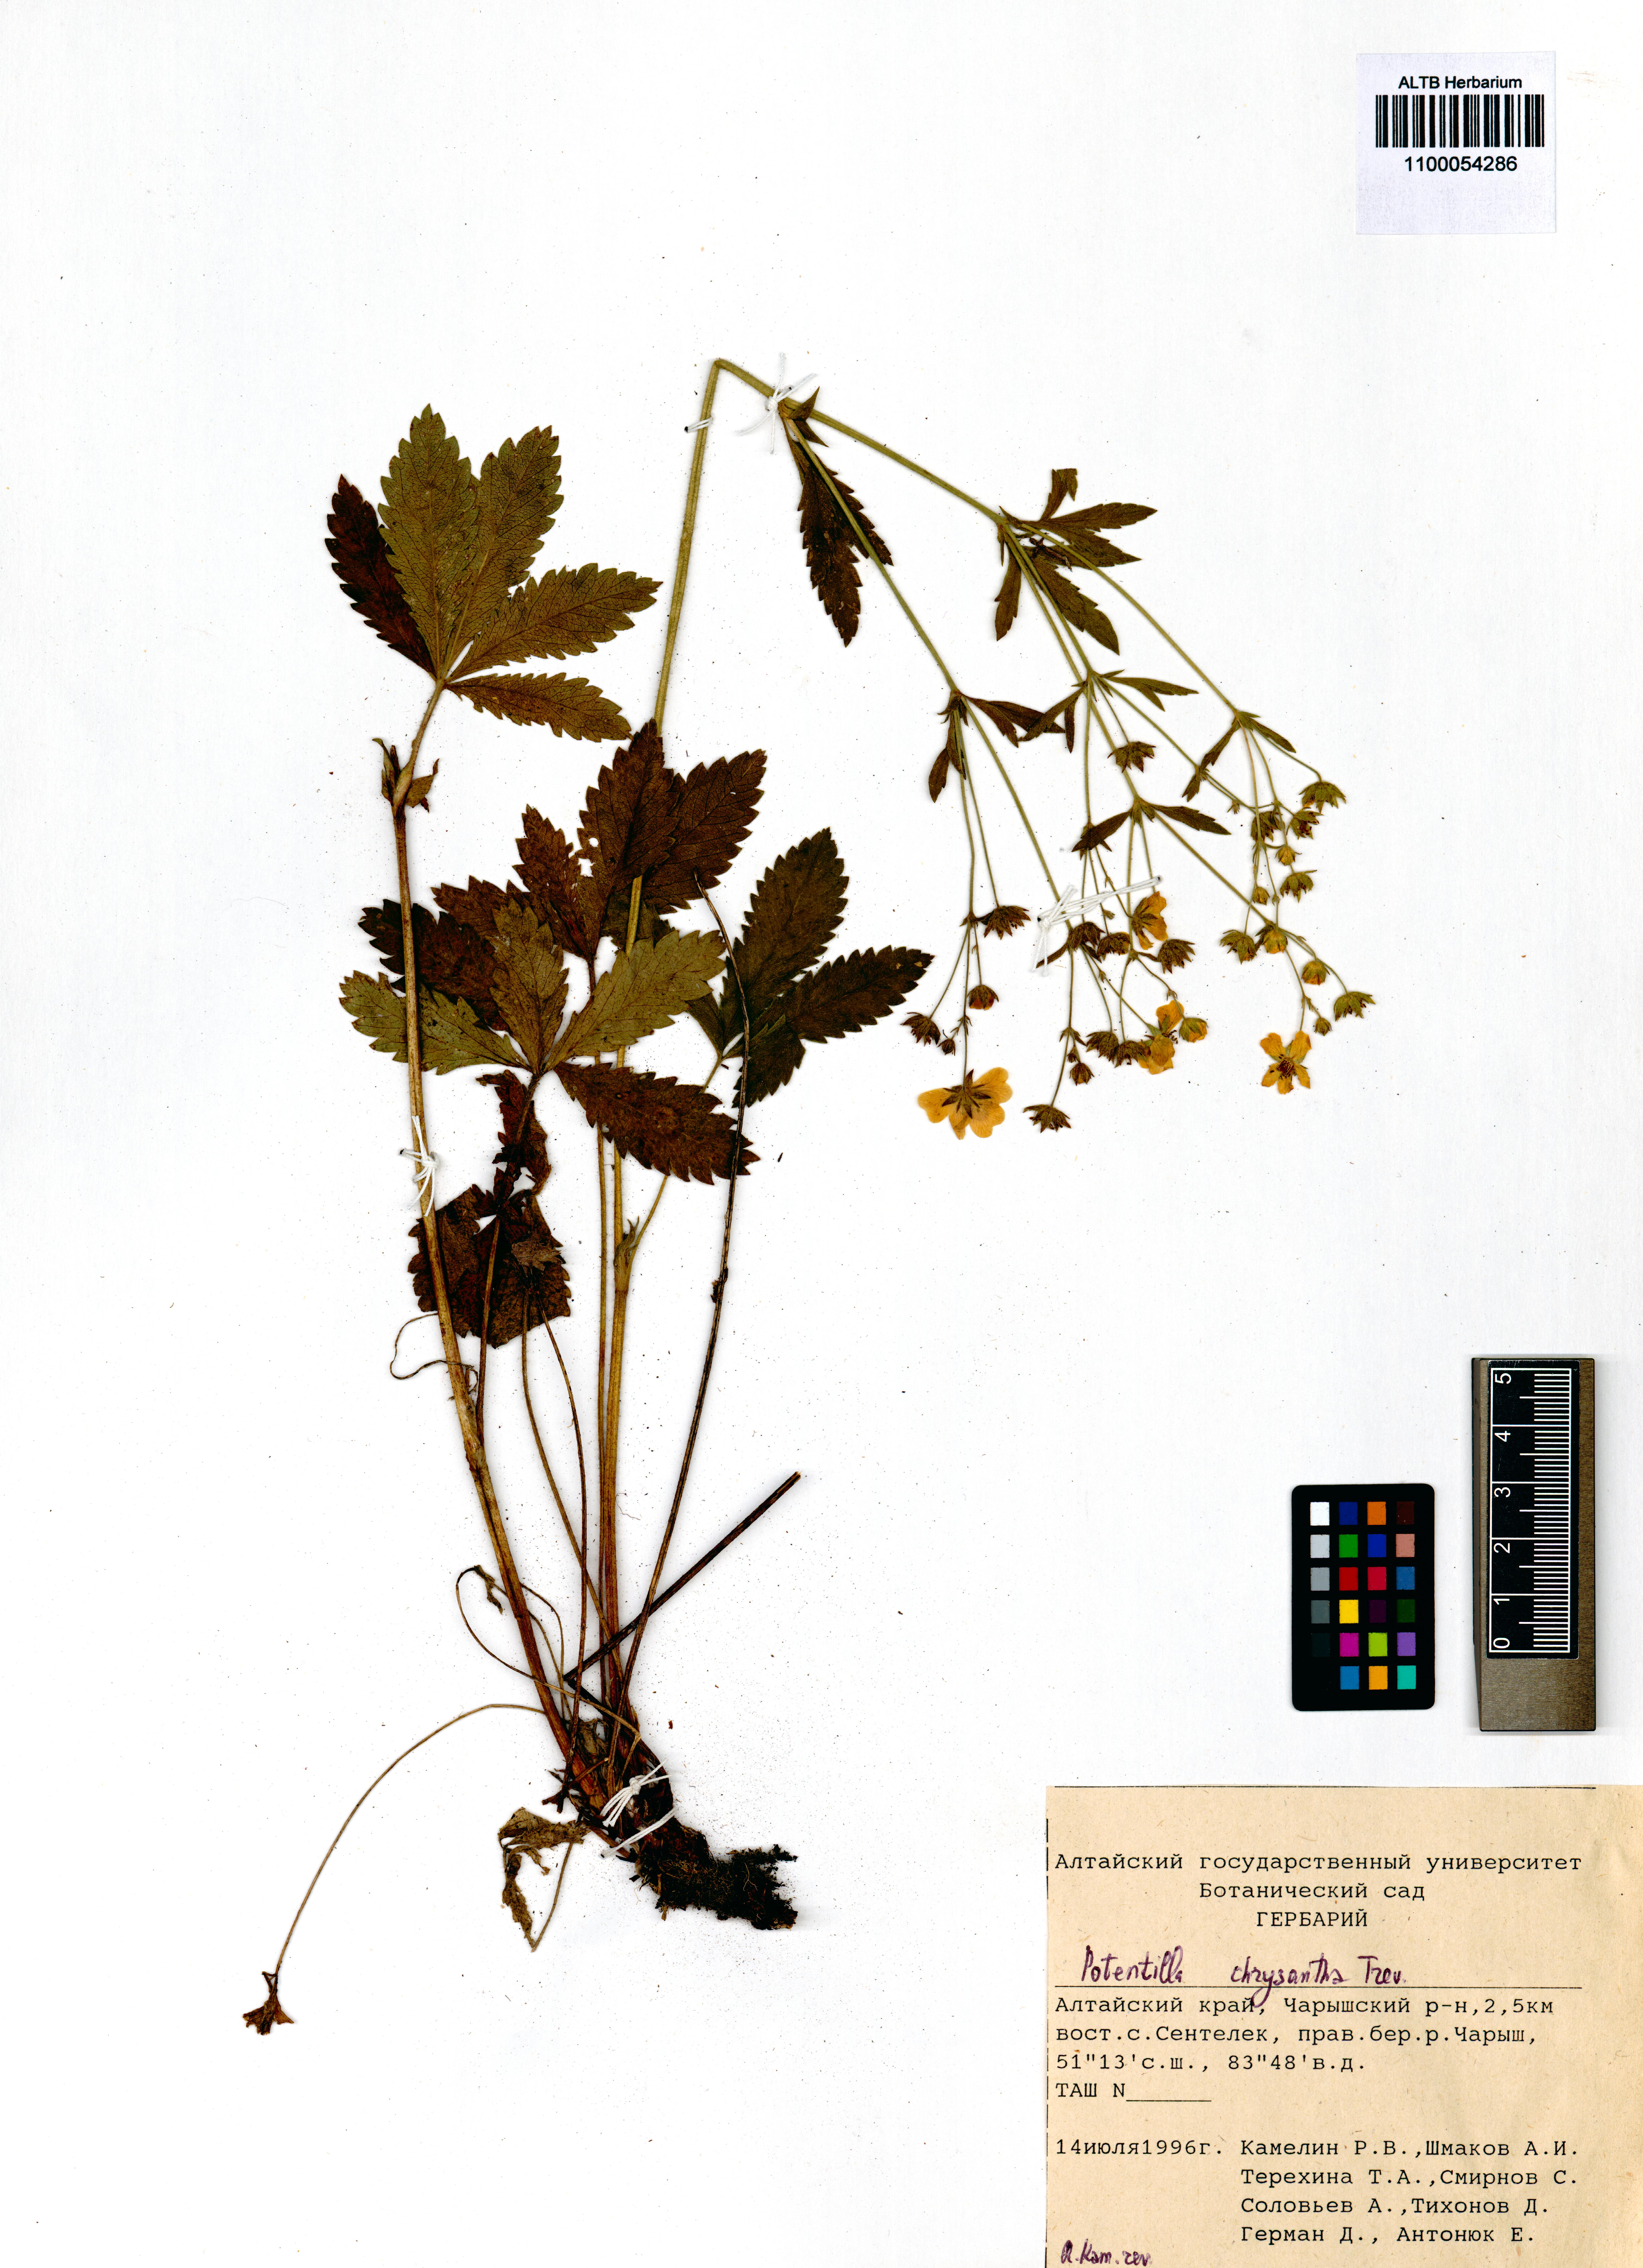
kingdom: Plantae
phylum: Tracheophyta
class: Magnoliopsida
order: Rosales
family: Rosaceae
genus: Potentilla
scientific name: Potentilla chrysantha
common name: Thuringian cinquefoil
